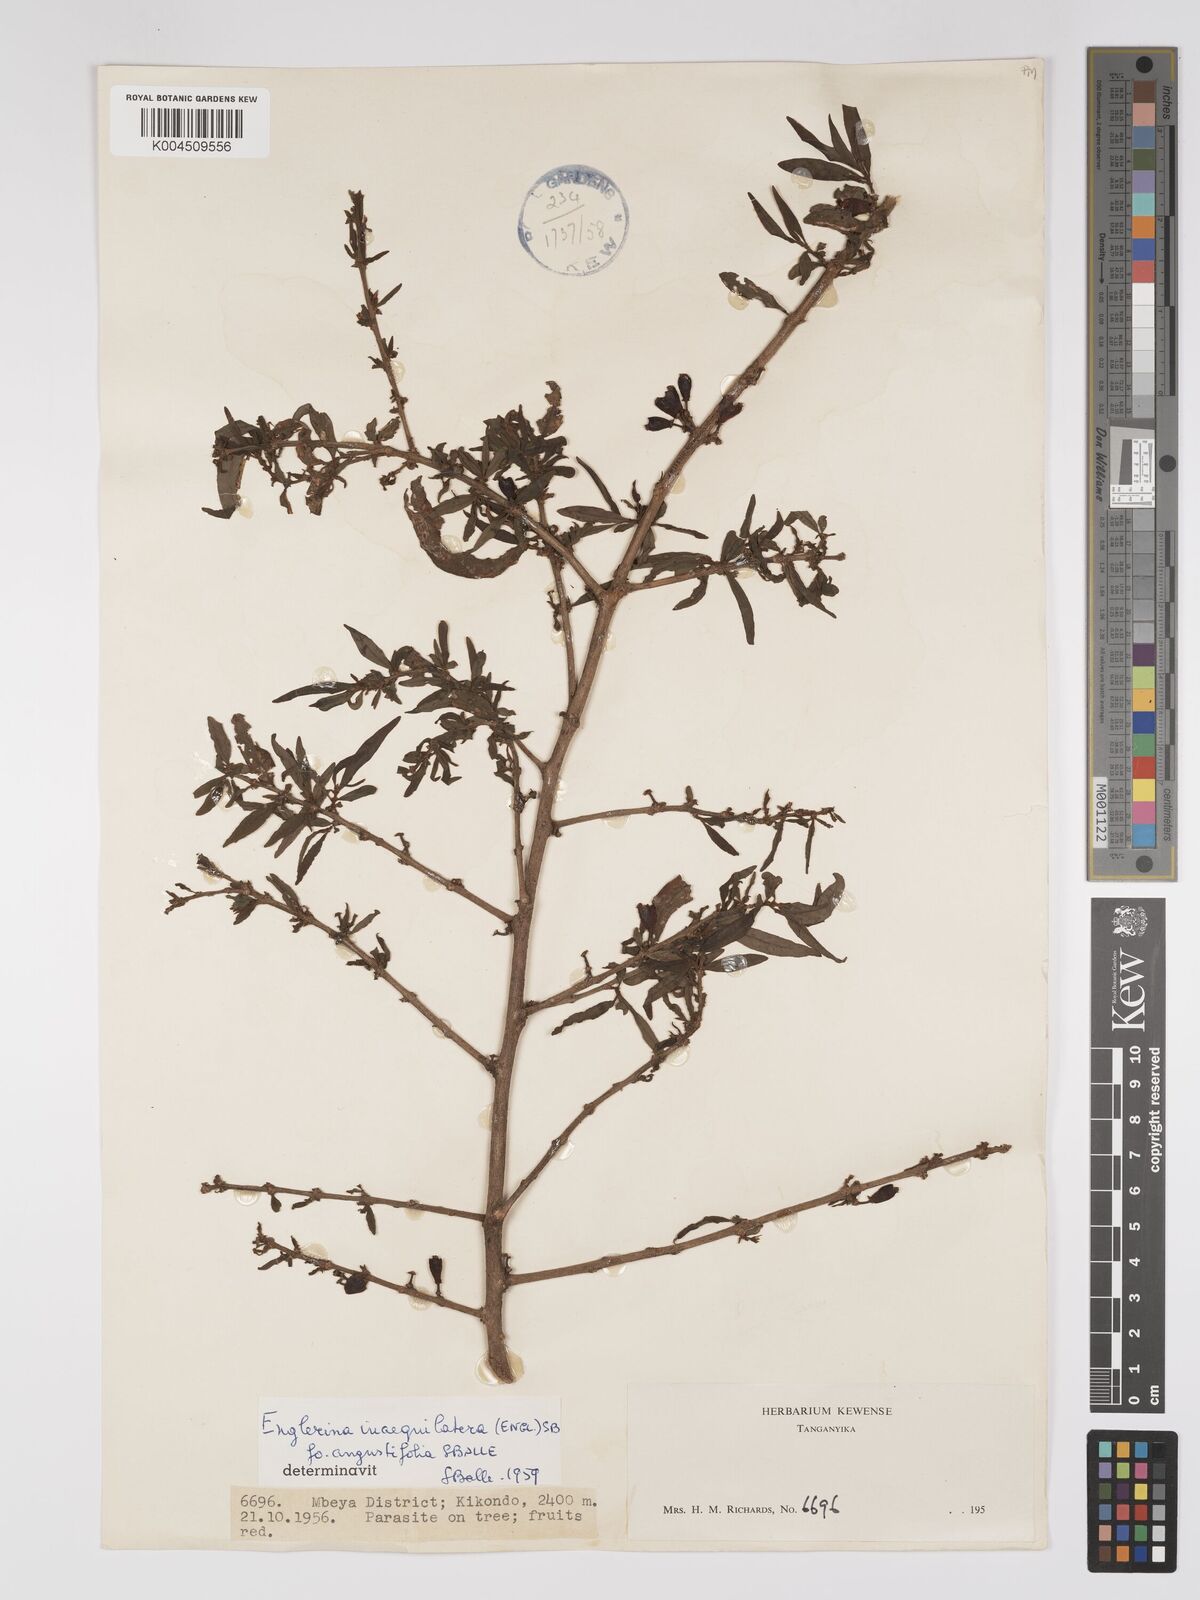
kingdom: Plantae
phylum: Tracheophyta
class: Magnoliopsida
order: Santalales
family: Loranthaceae
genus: Englerina
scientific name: Englerina inaequilatera
